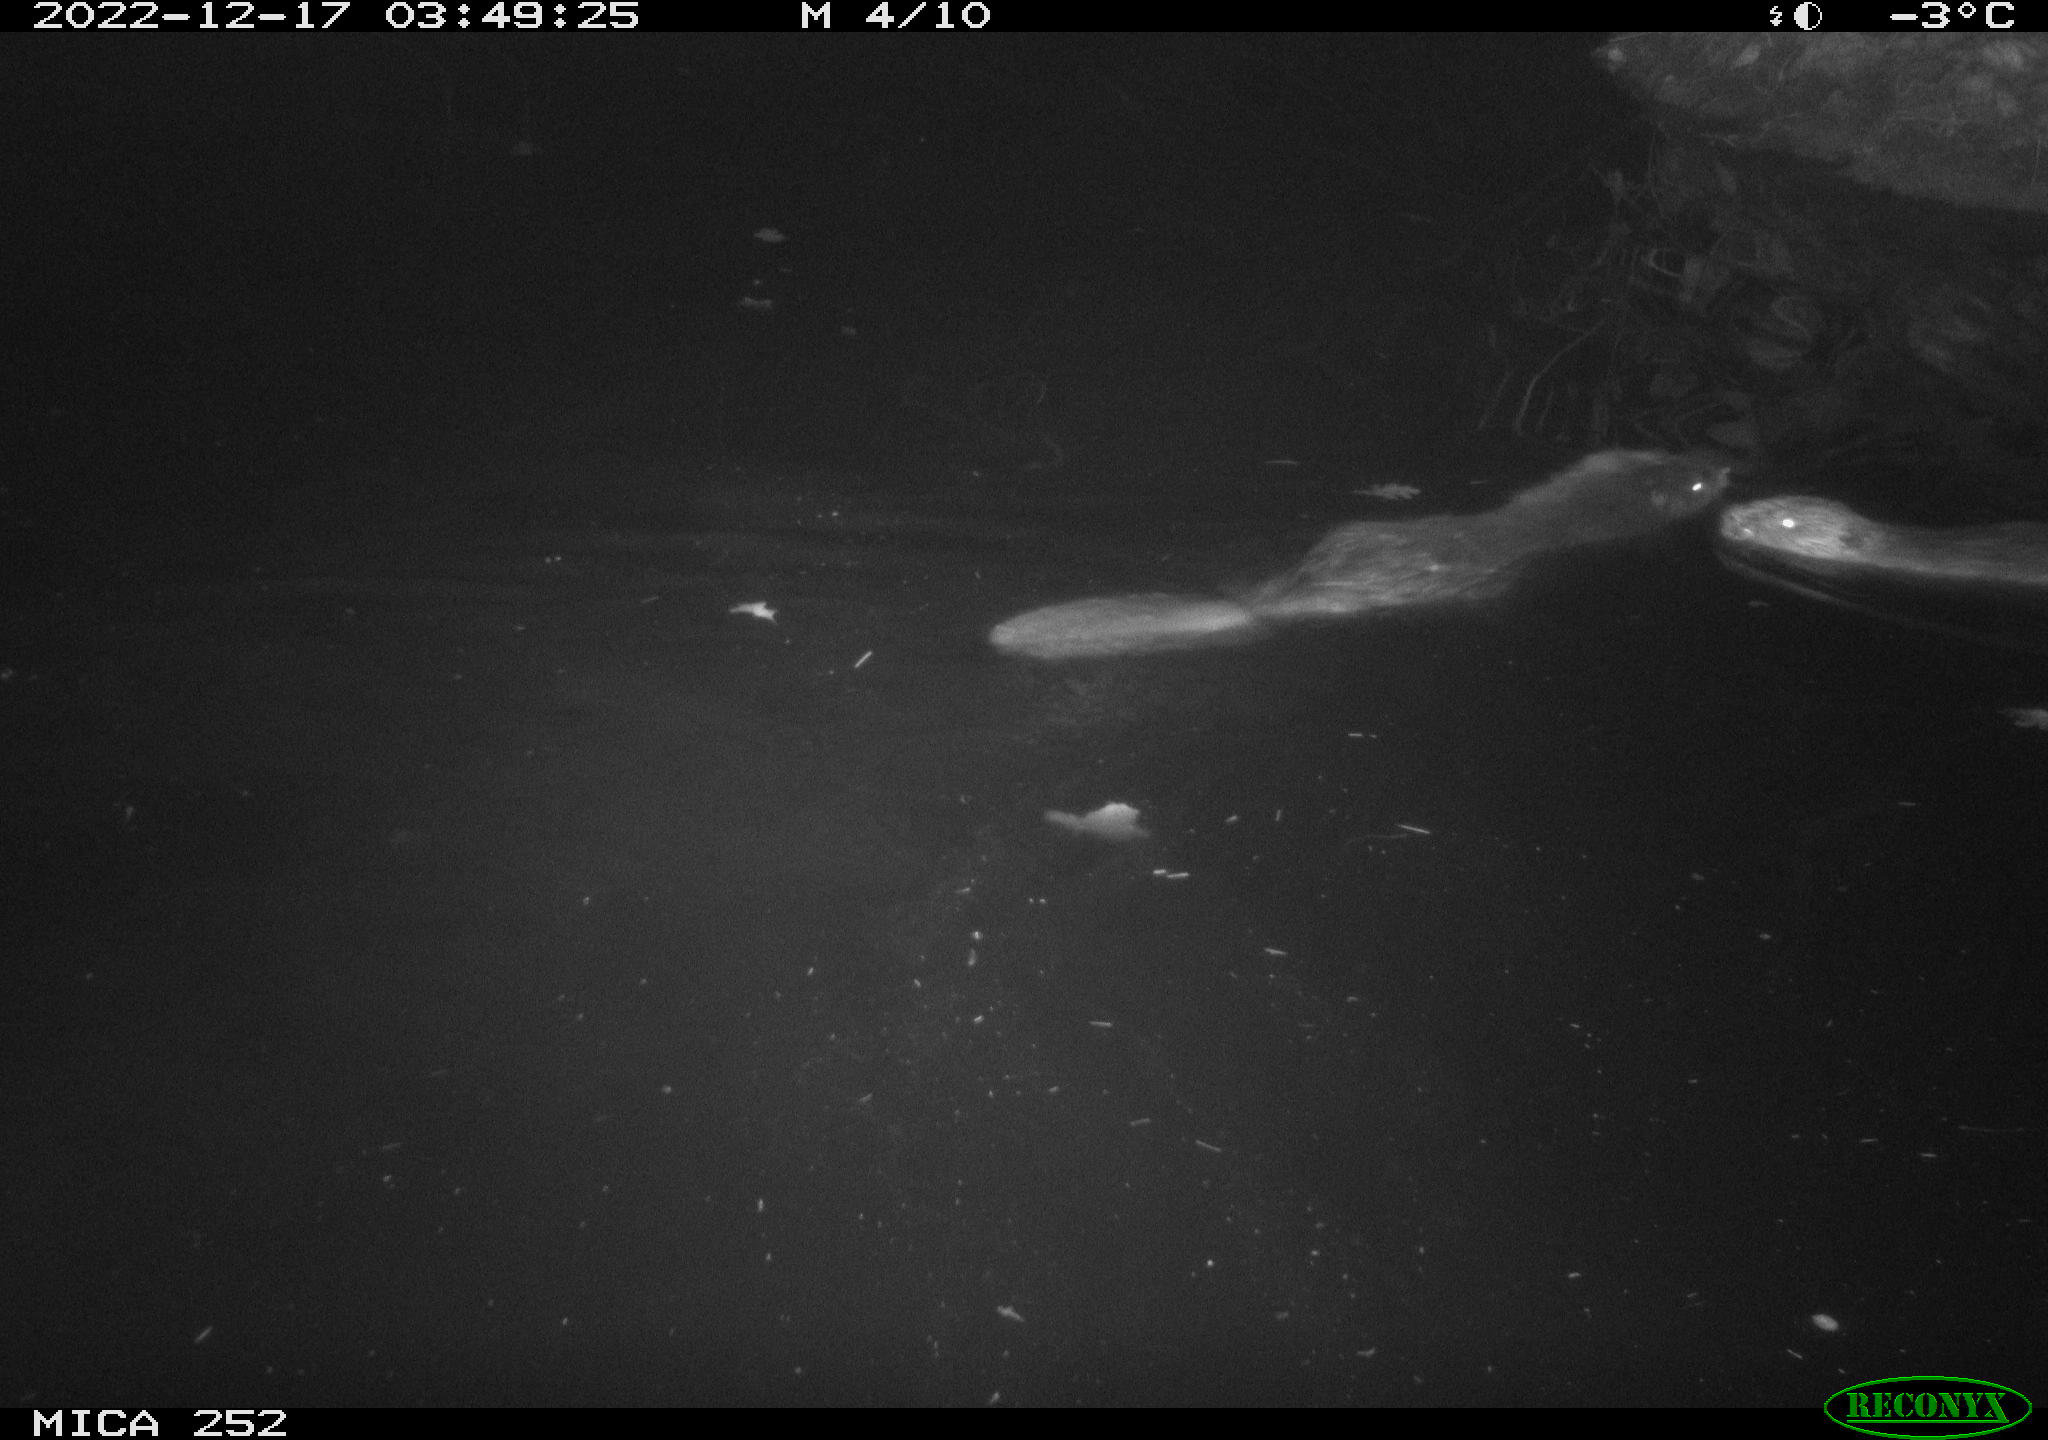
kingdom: Animalia
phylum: Chordata
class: Mammalia
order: Rodentia
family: Castoridae
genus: Castor
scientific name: Castor fiber
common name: Eurasian beaver
